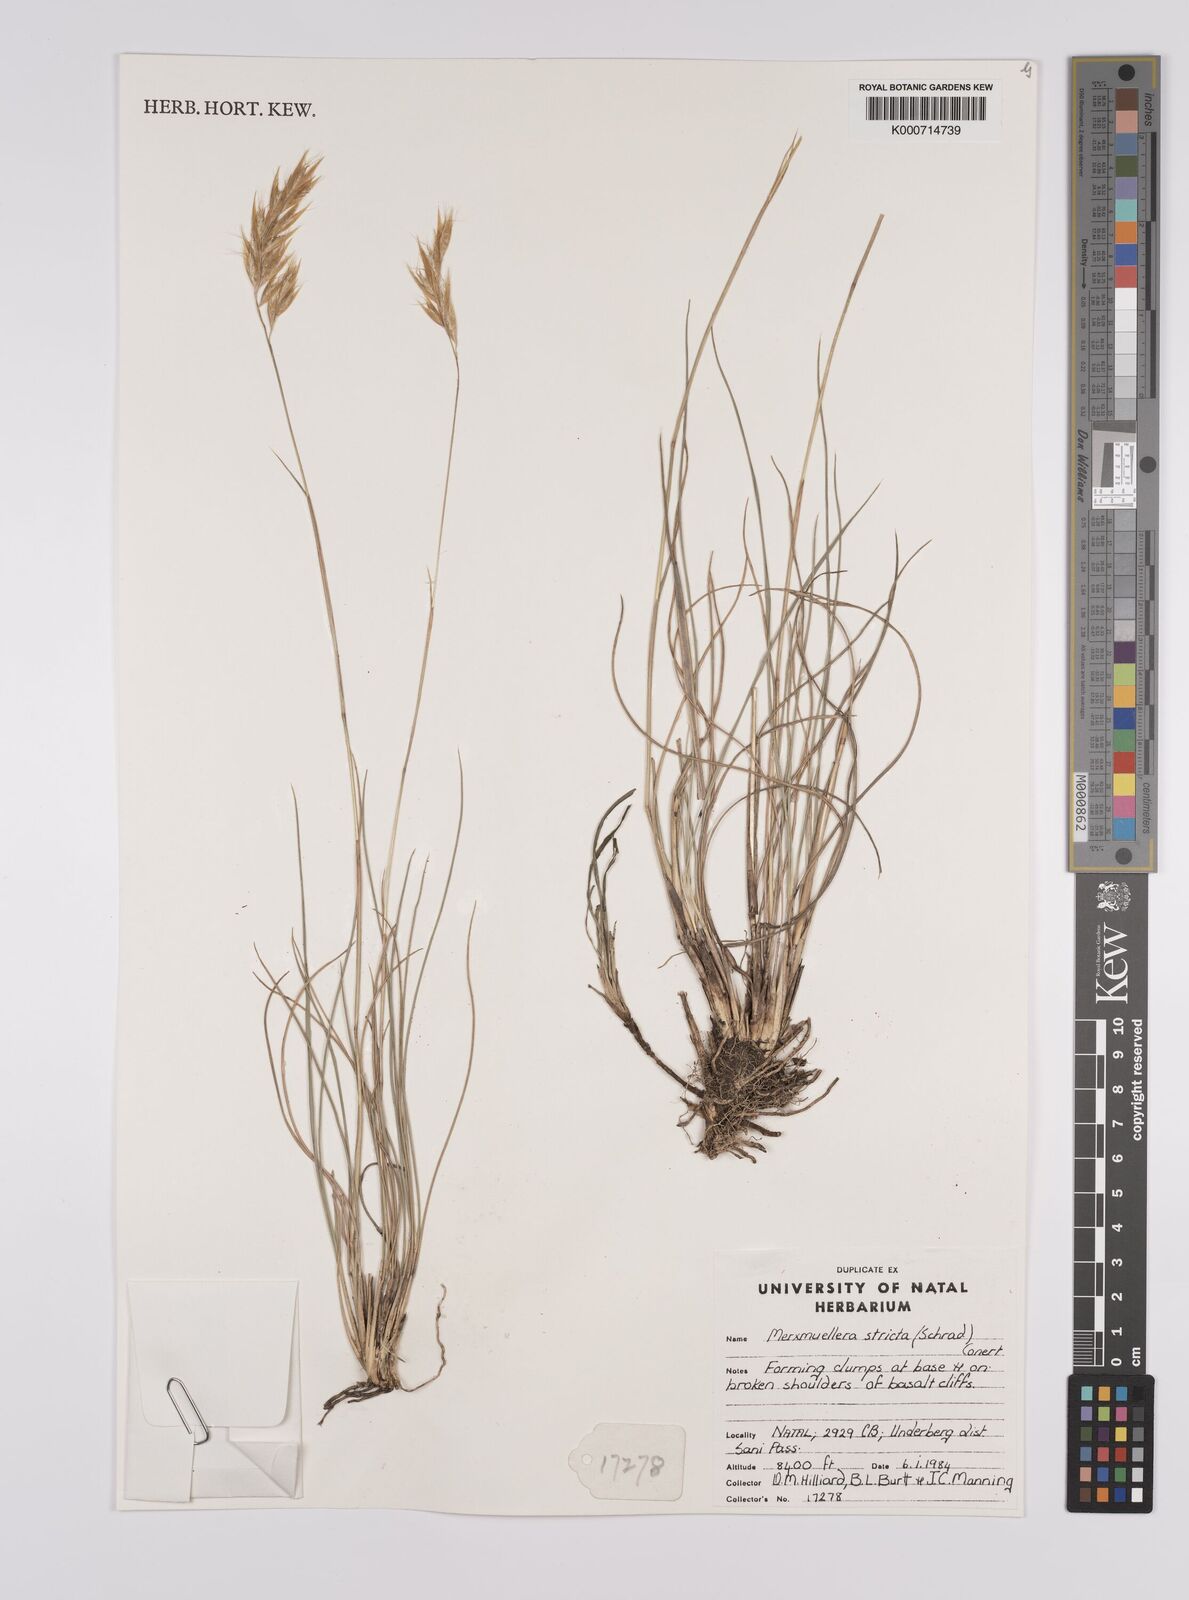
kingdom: Plantae
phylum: Tracheophyta
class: Liliopsida
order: Poales
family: Poaceae
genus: Rytidosperma
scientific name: Rytidosperma
